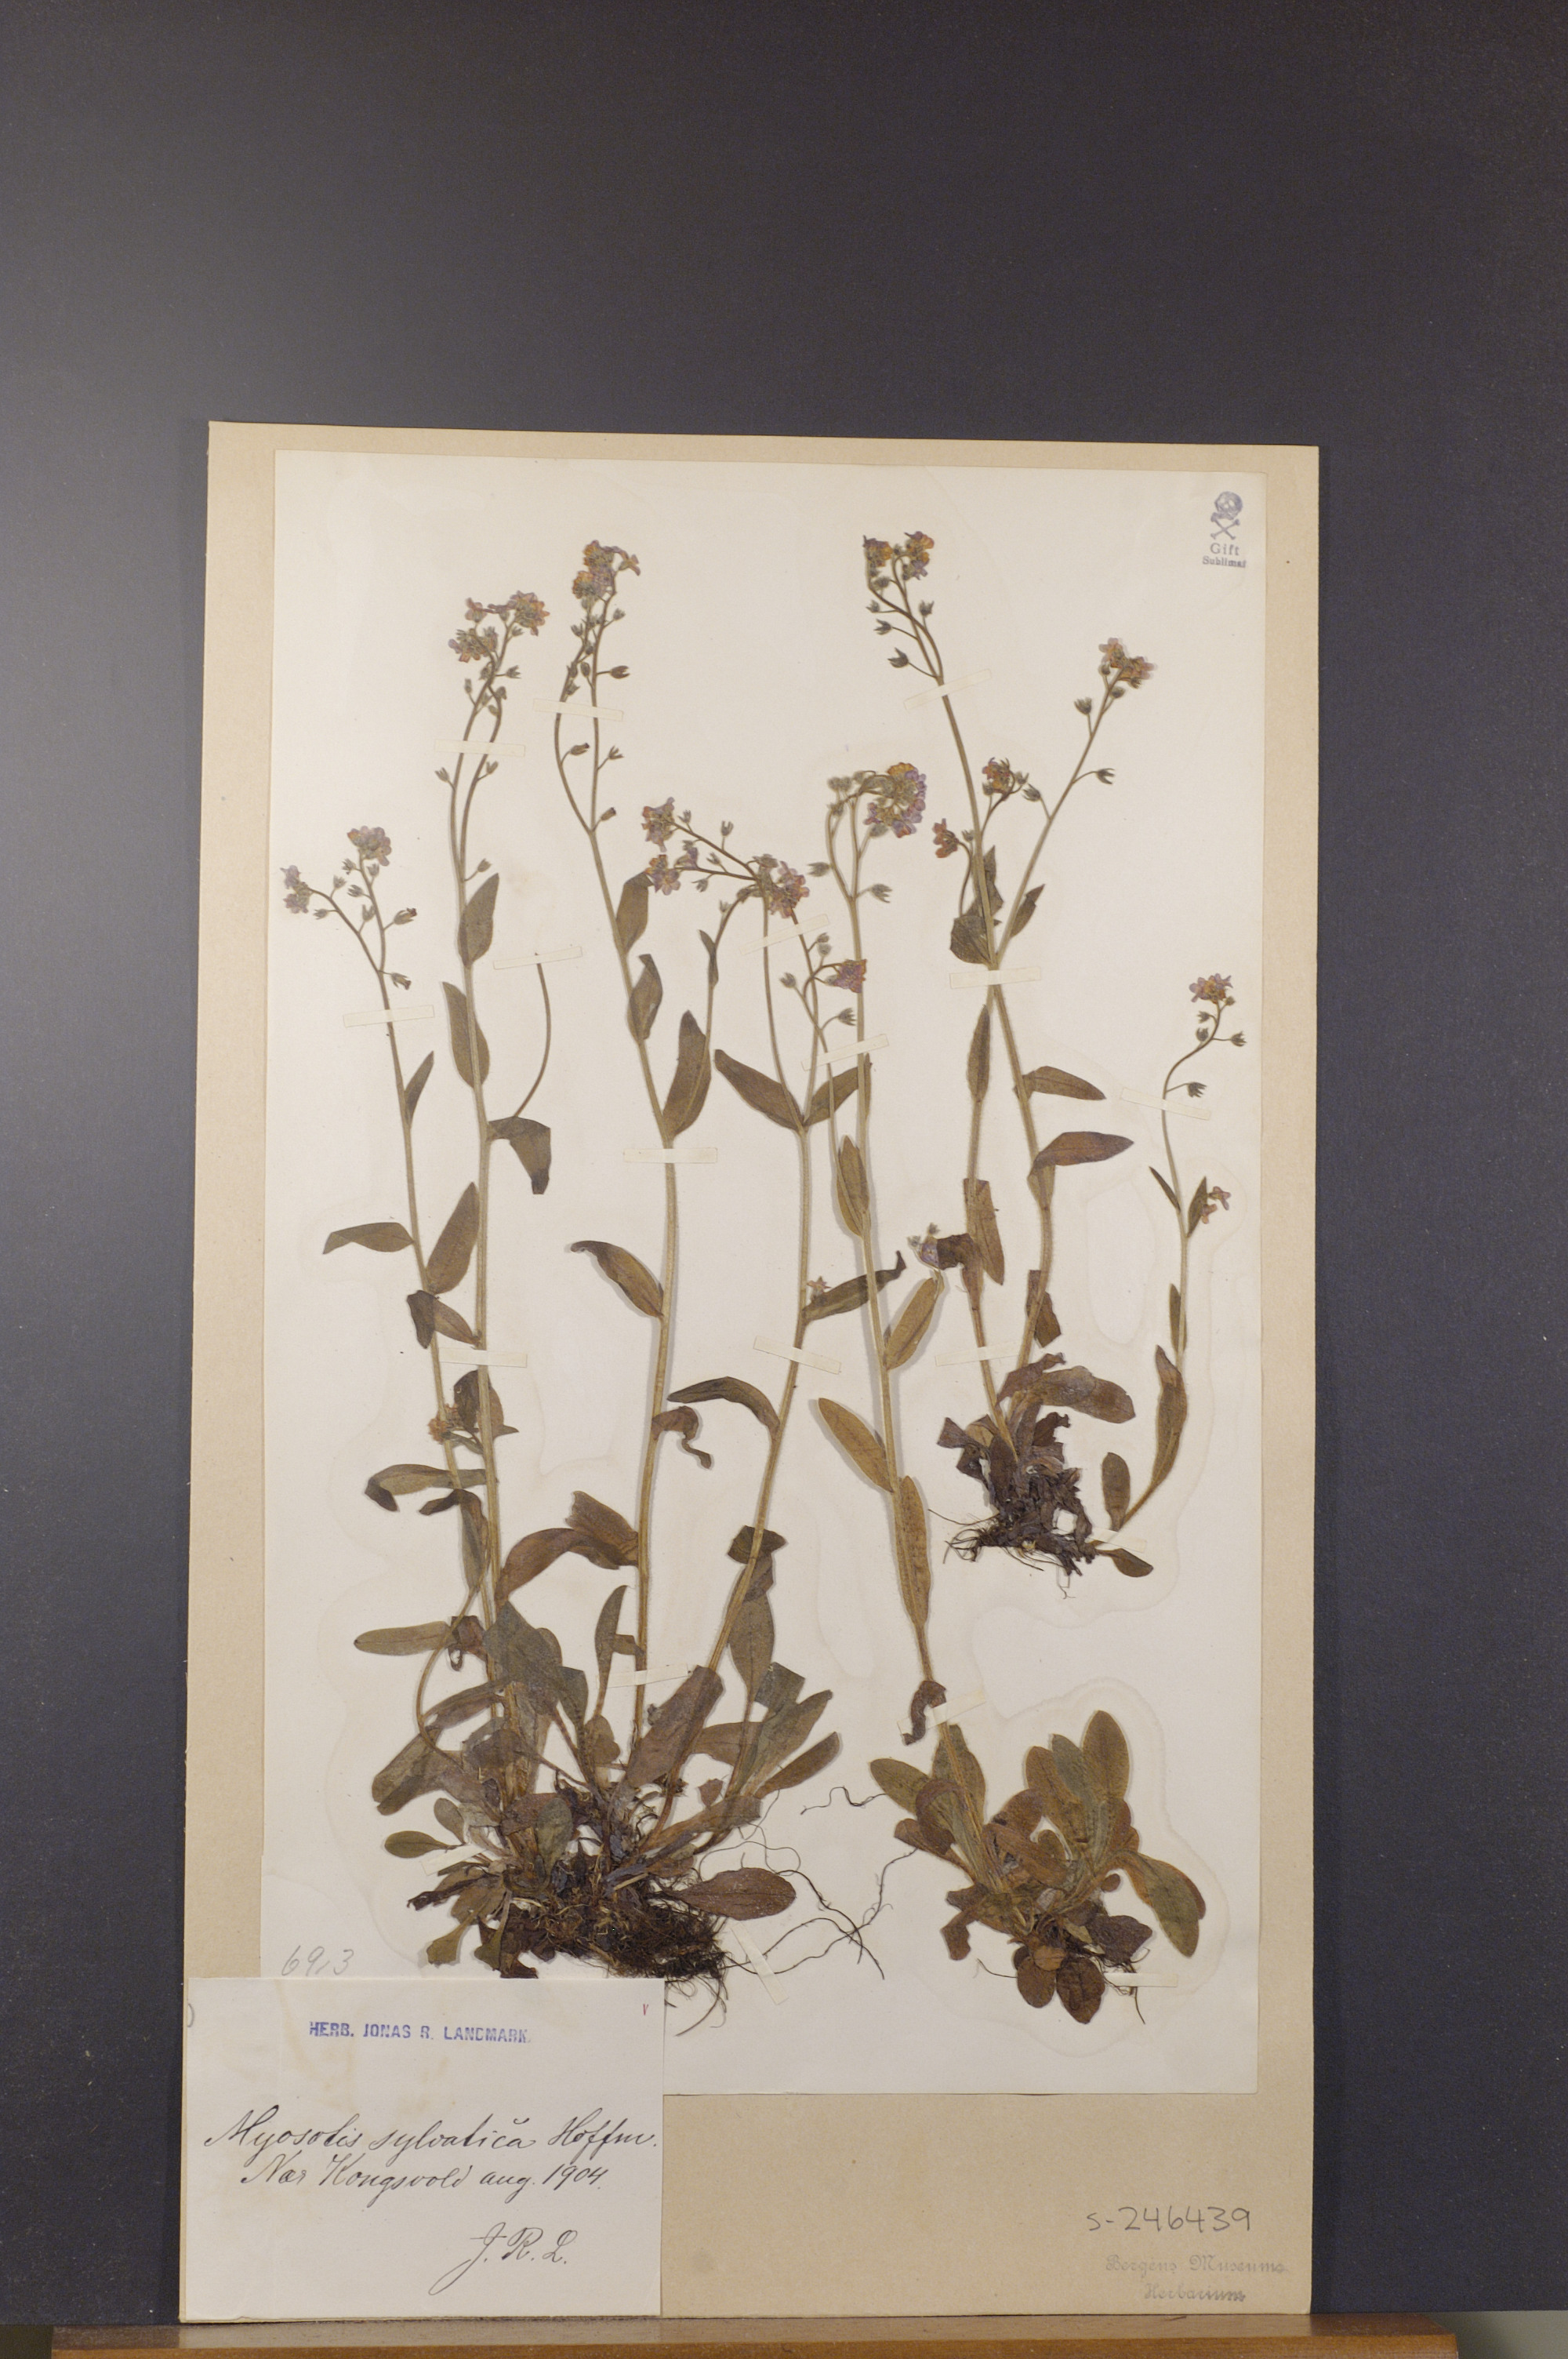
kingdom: Plantae
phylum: Tracheophyta
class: Magnoliopsida
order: Boraginales
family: Boraginaceae
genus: Myosotis
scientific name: Myosotis decumbens
